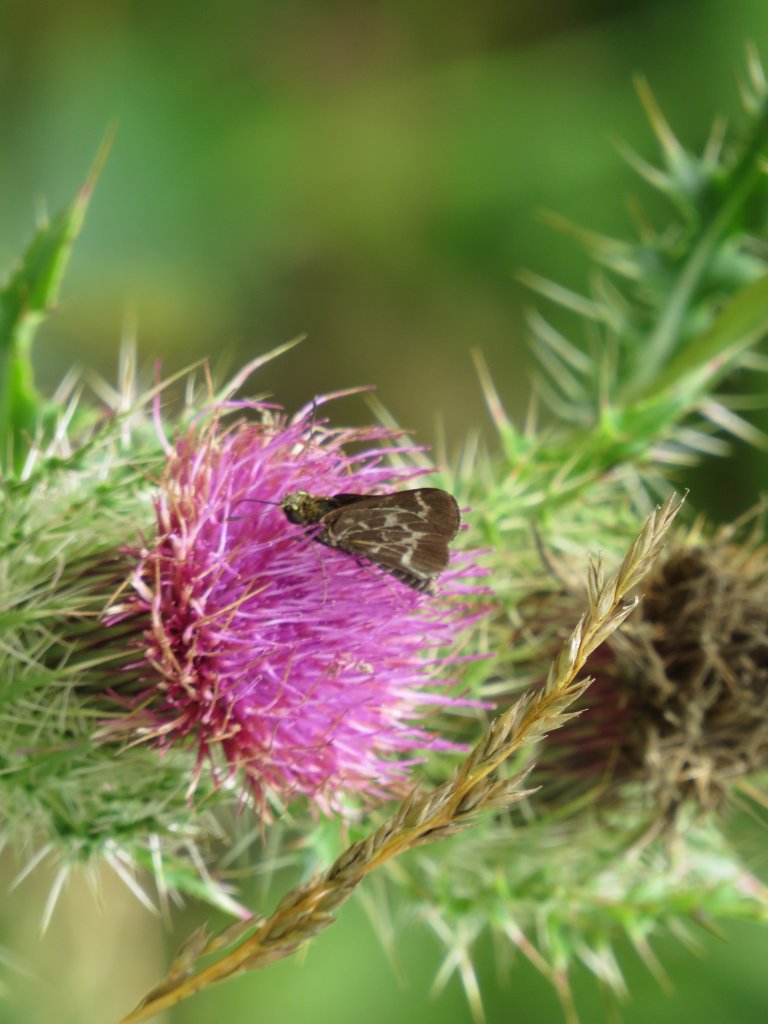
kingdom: Animalia
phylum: Arthropoda
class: Insecta
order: Lepidoptera
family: Hesperiidae
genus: Mastor
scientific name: Mastor aesculapius
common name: Lace-winged Roadside-Skipper
